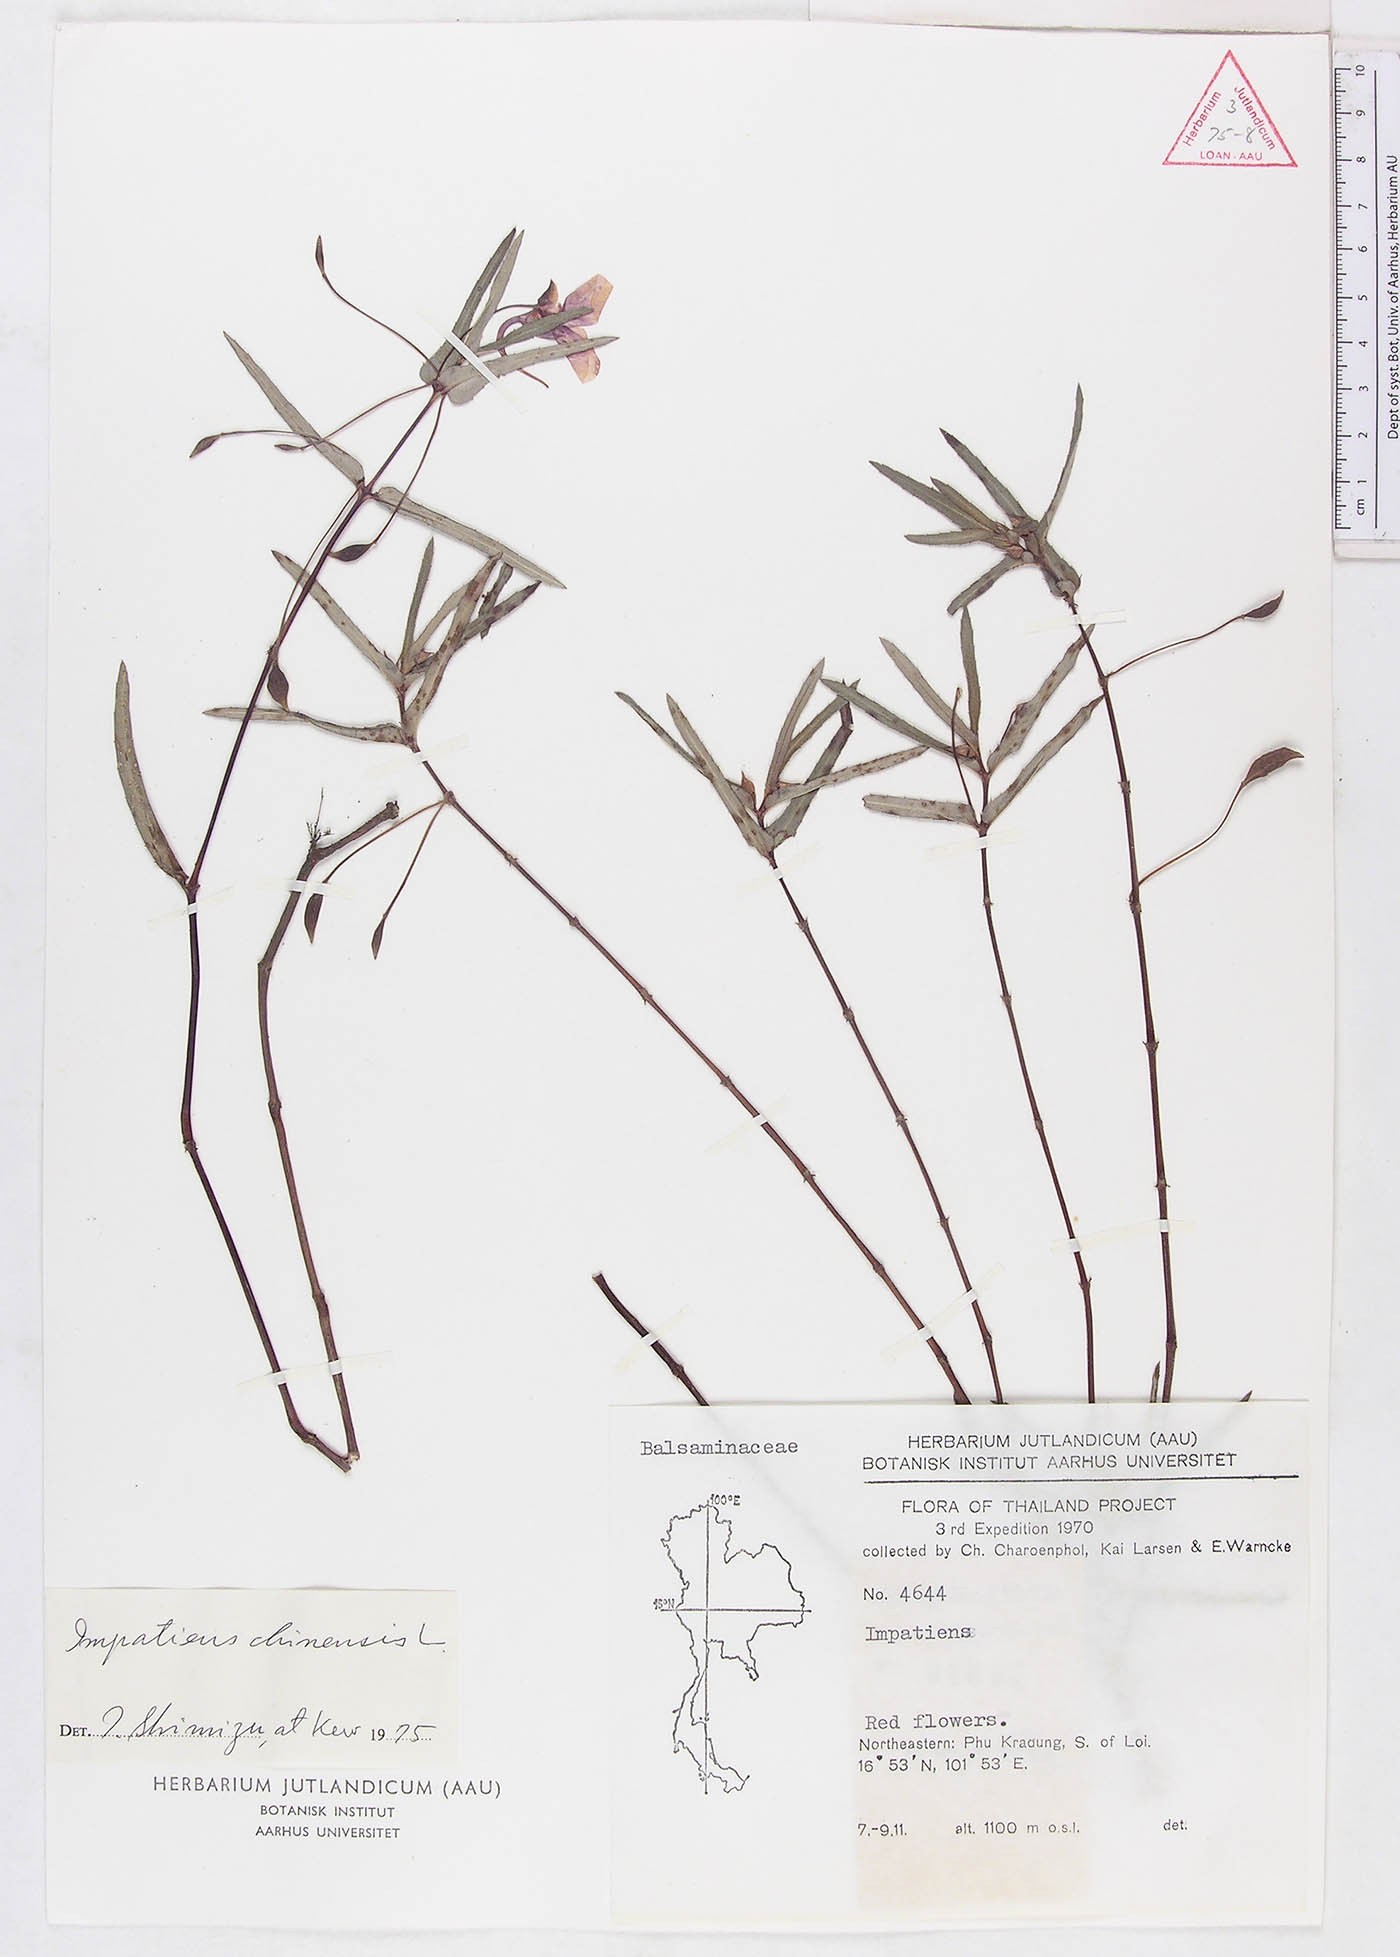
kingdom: Plantae
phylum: Tracheophyta
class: Magnoliopsida
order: Ericales
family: Balsaminaceae
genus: Impatiens
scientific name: Impatiens chinensis
